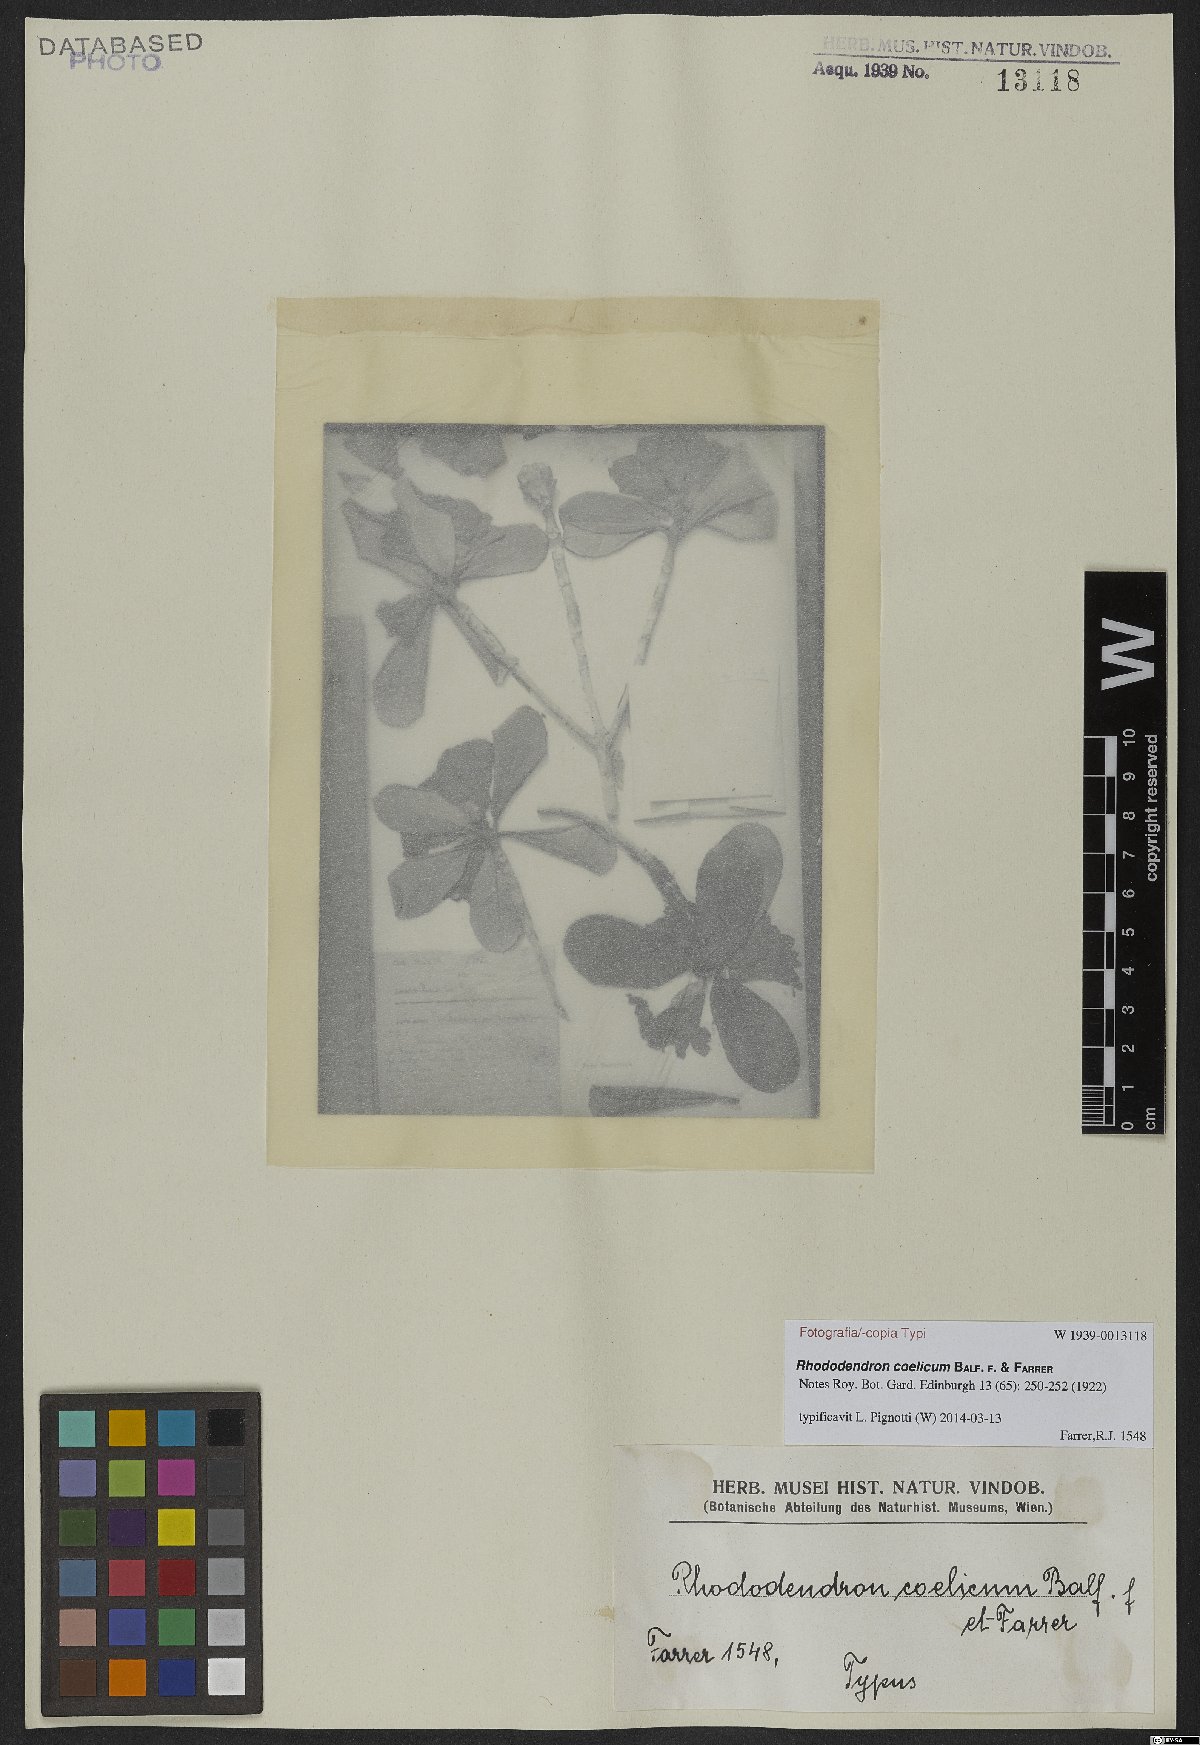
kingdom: Plantae
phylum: Tracheophyta
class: Magnoliopsida
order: Ericales
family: Ericaceae
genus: Rhododendron
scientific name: Rhododendron coelicum
